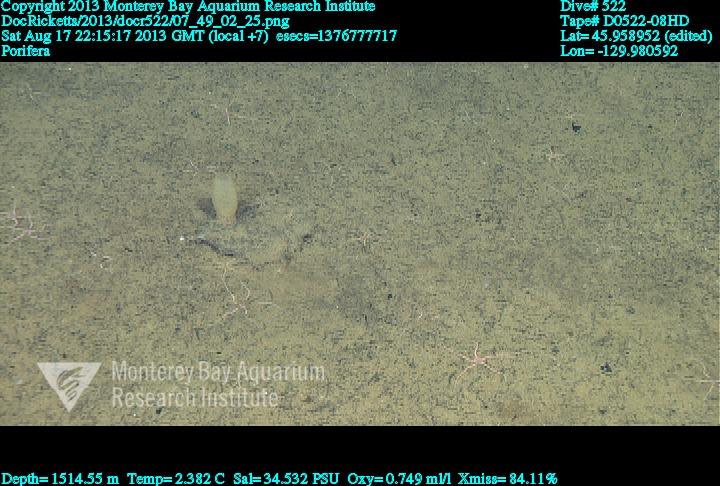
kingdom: Animalia
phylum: Porifera
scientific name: Porifera
